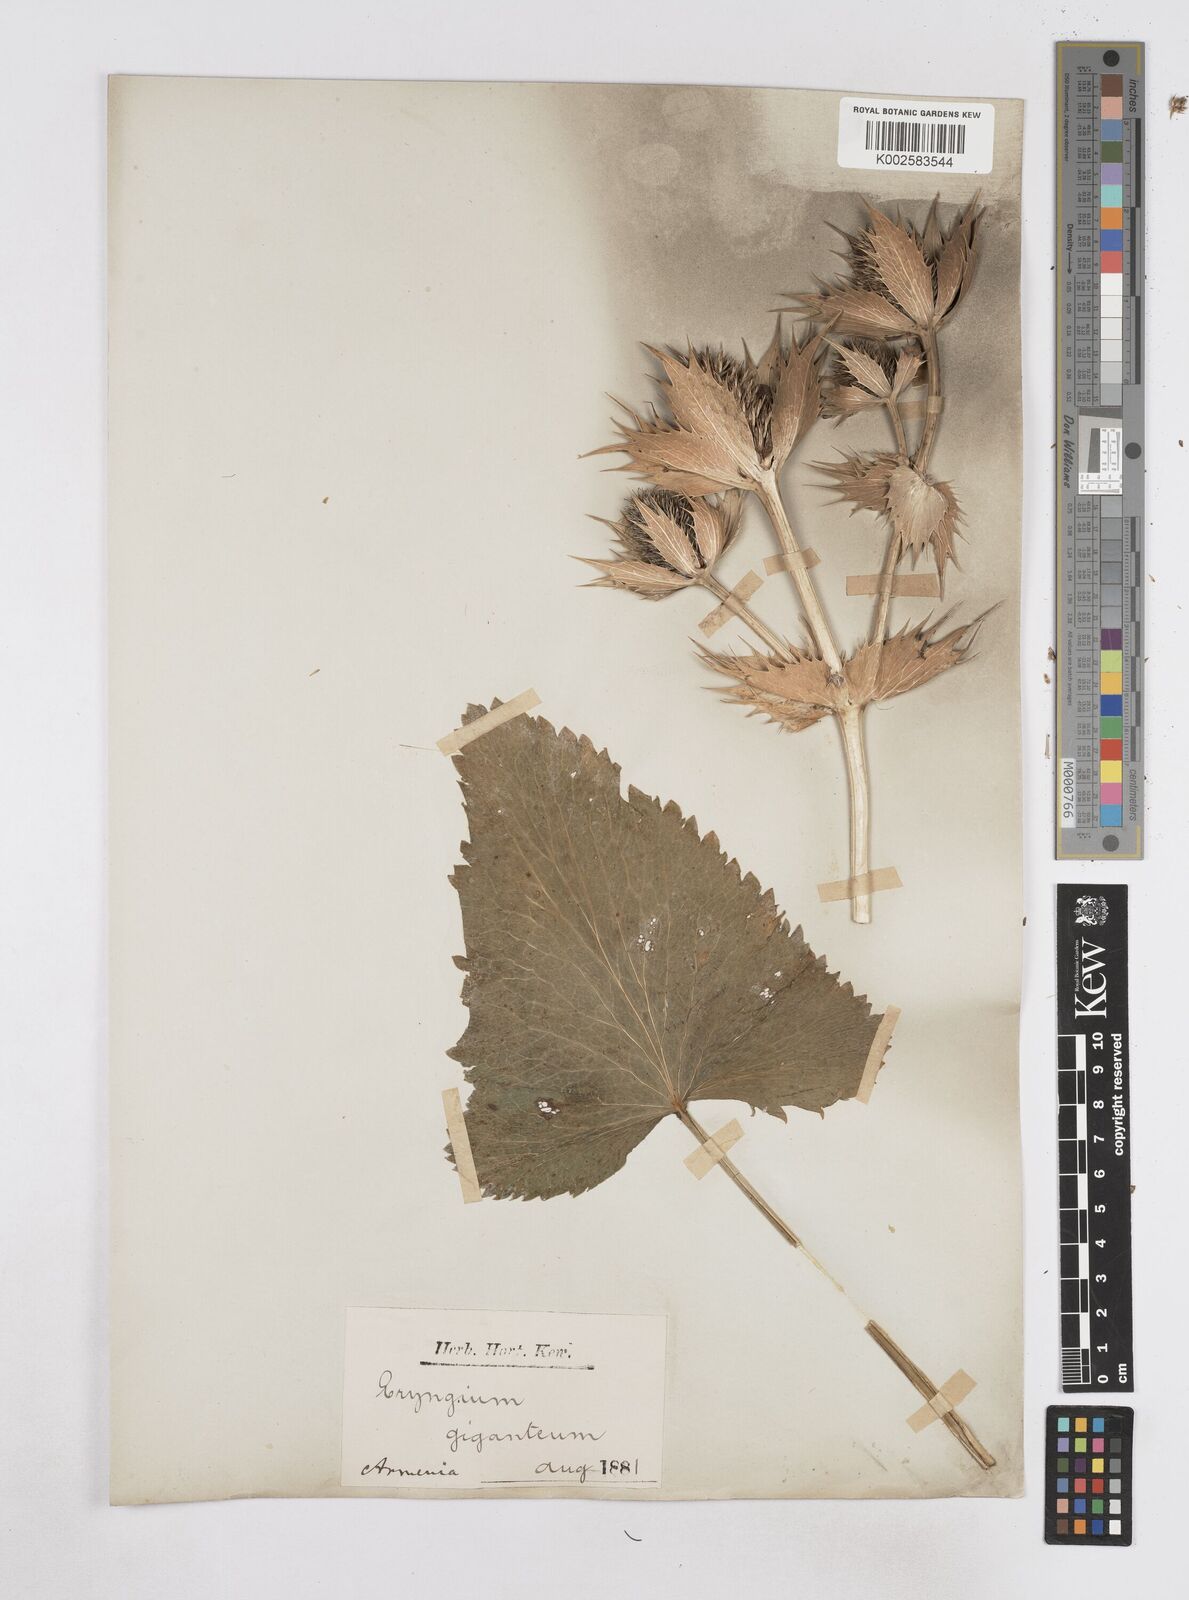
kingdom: Plantae
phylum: Tracheophyta
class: Magnoliopsida
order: Apiales
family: Apiaceae
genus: Eryngium
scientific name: Eryngium giganteum
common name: Tall eryngo
